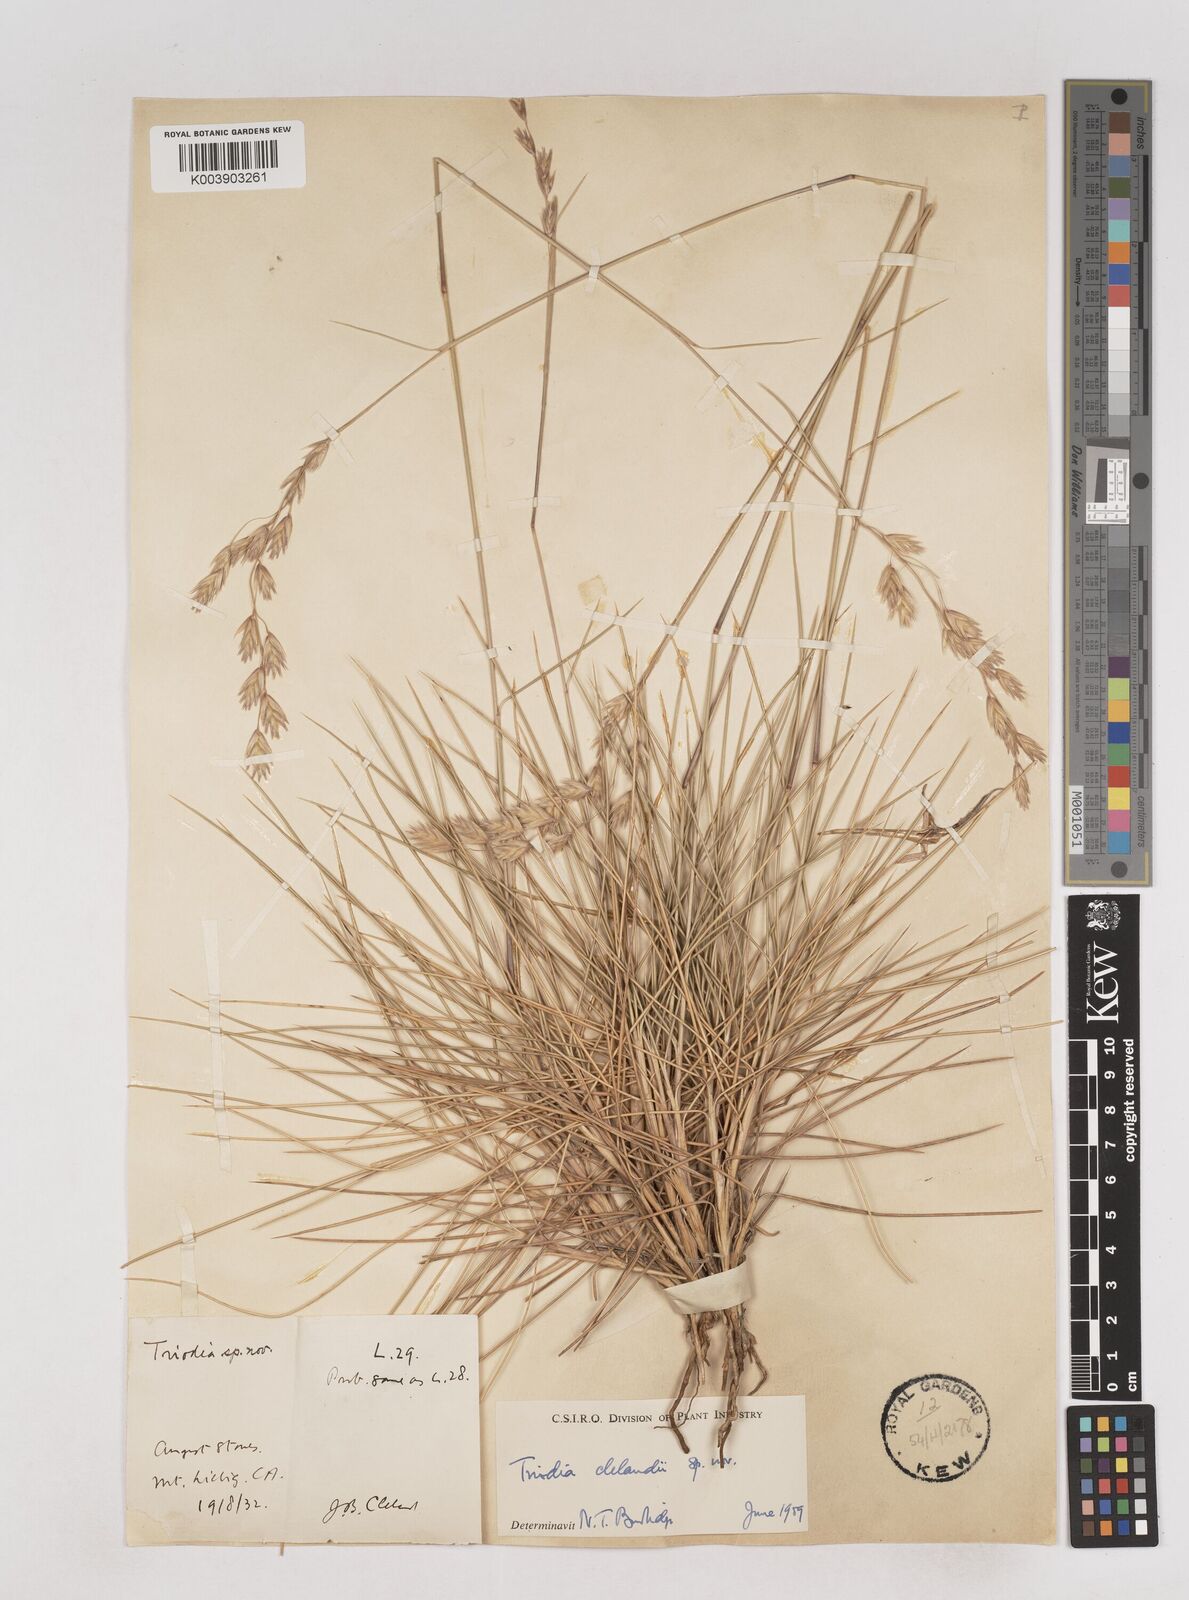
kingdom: Plantae
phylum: Tracheophyta
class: Liliopsida
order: Poales
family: Poaceae
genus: Triodia
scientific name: Triodia brizoides
